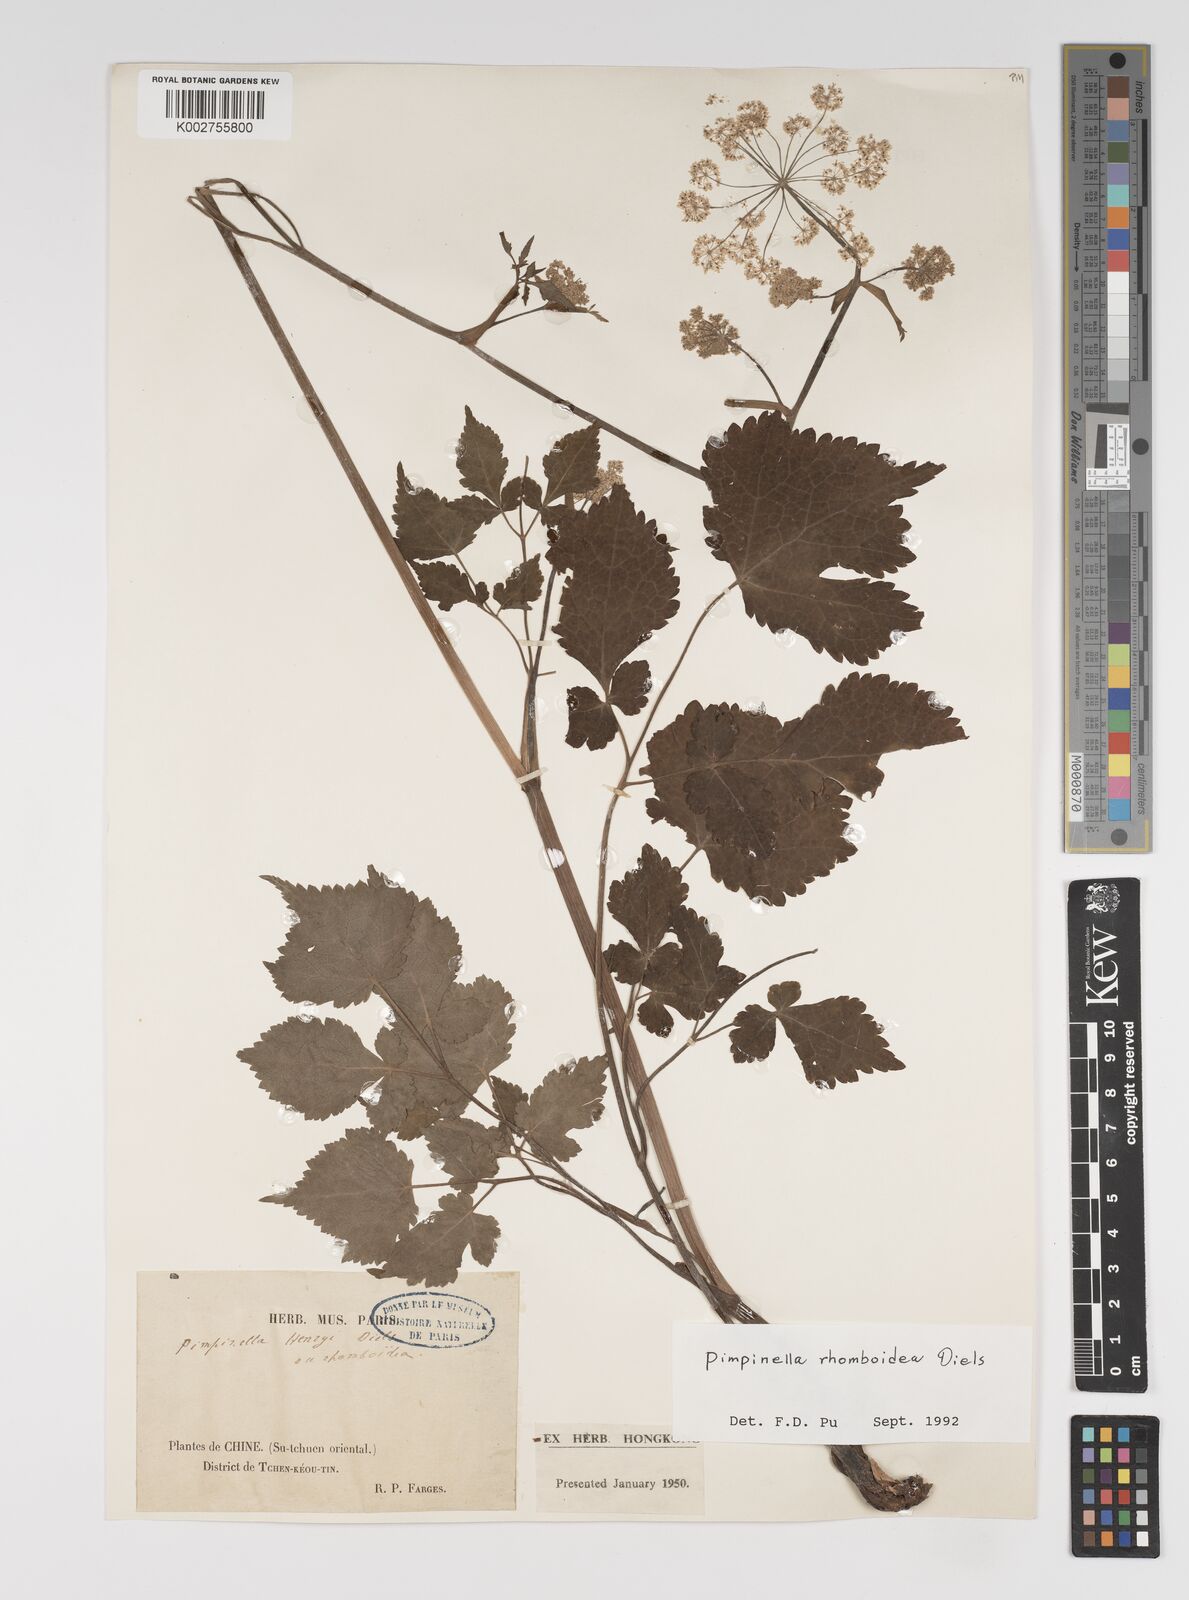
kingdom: Plantae
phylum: Tracheophyta
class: Magnoliopsida
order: Apiales
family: Apiaceae
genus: Pimpinella
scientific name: Pimpinella rhomboidea
